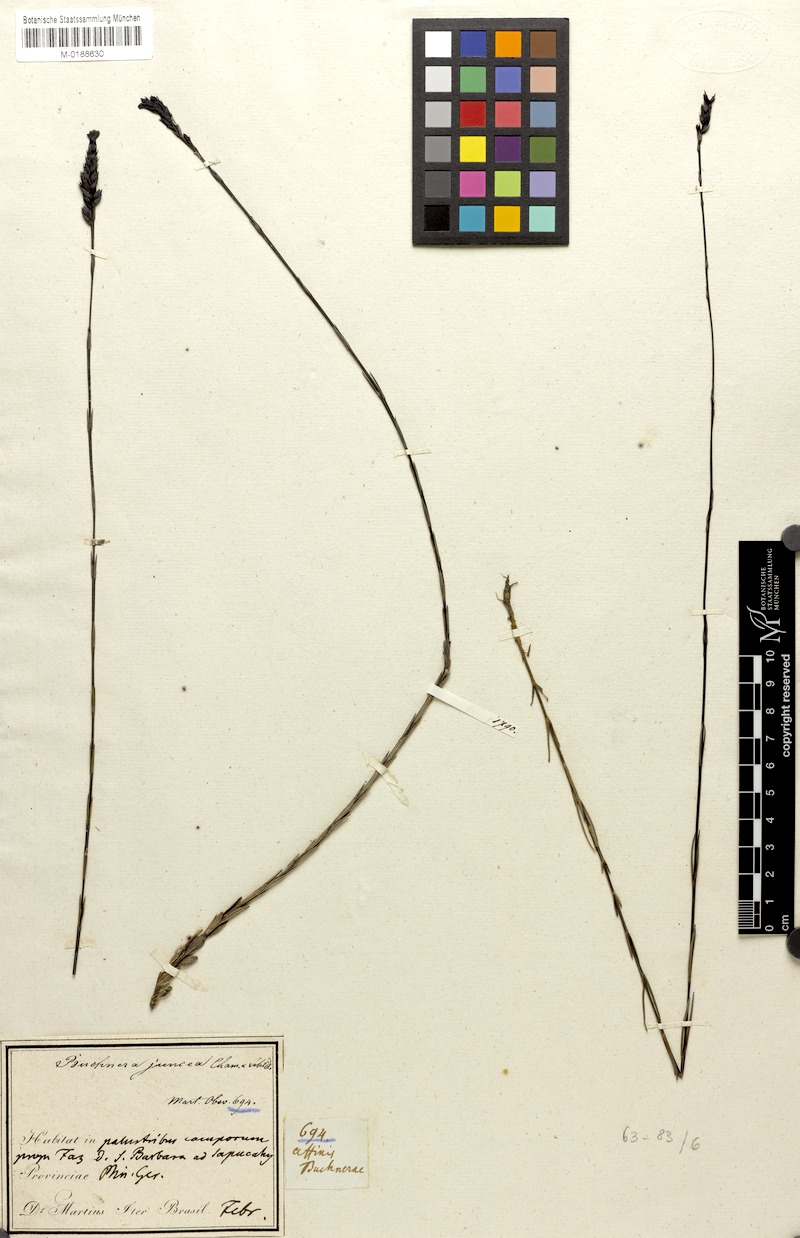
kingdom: Plantae
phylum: Tracheophyta
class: Magnoliopsida
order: Lamiales
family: Orobanchaceae
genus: Buchnera
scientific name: Buchnera juncea
